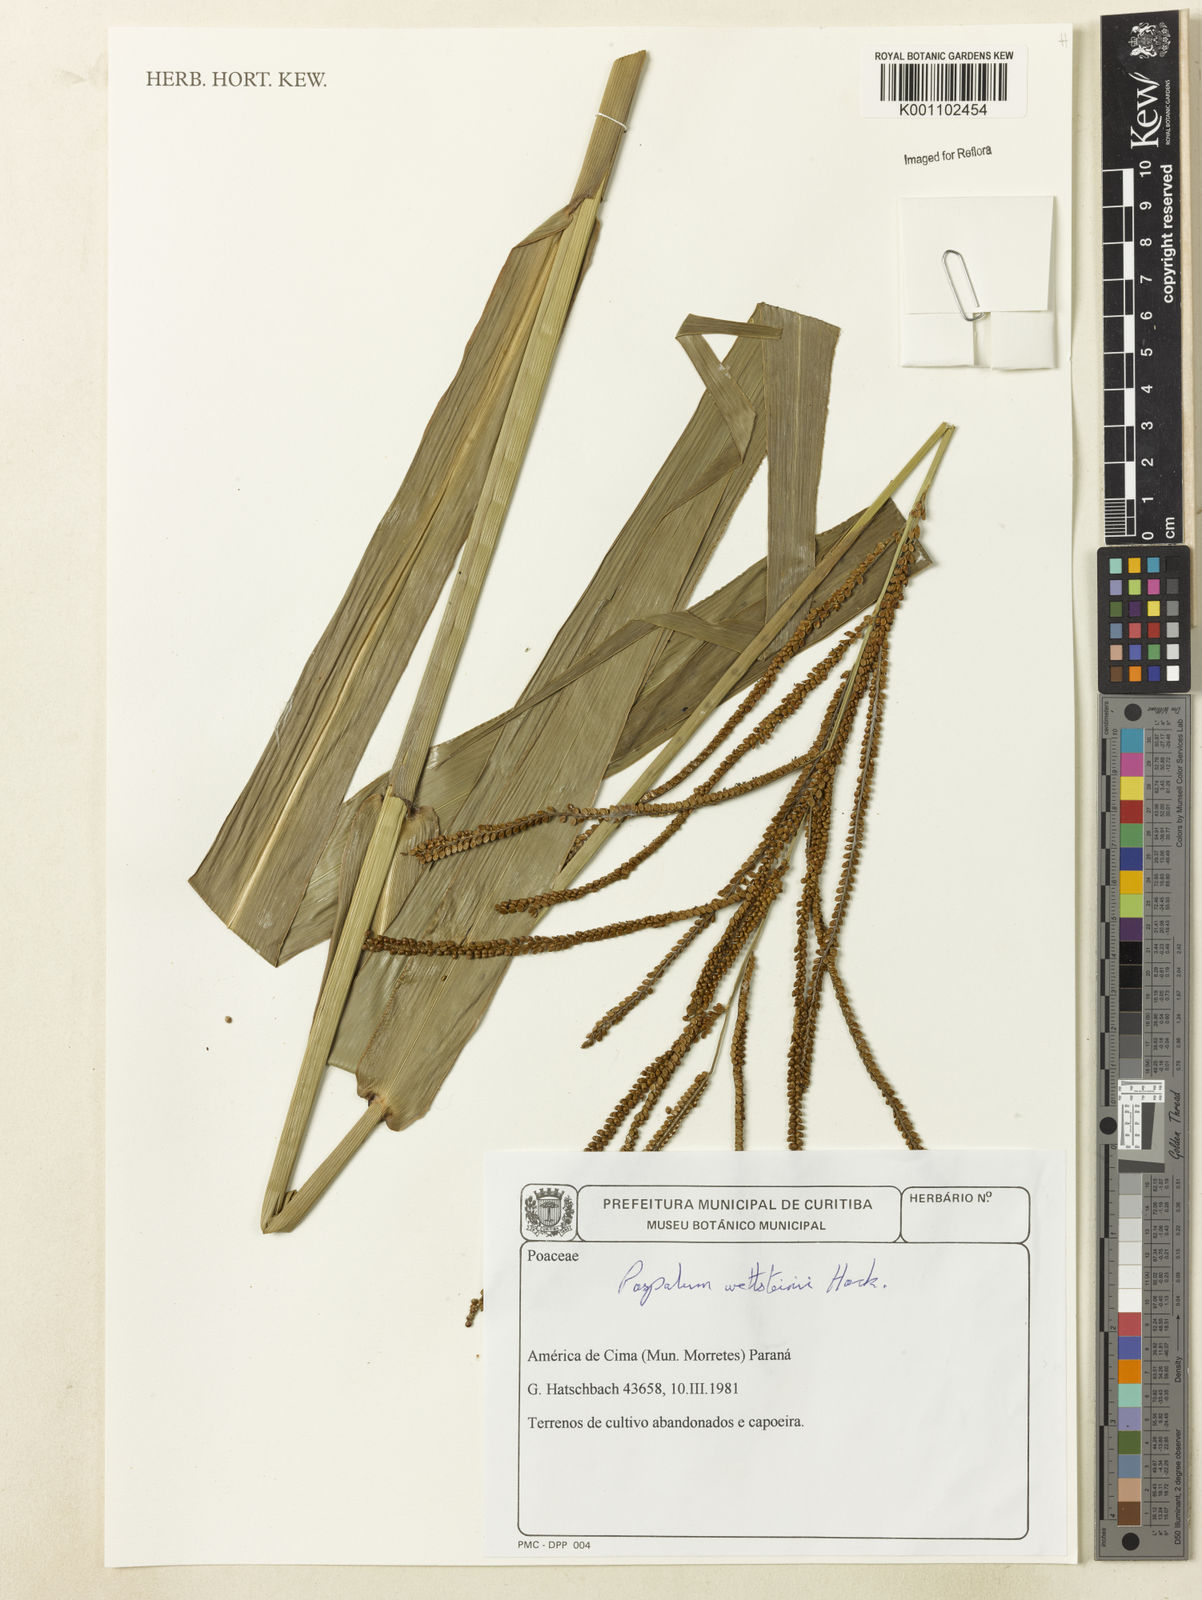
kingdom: Plantae
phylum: Tracheophyta
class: Liliopsida
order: Poales
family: Poaceae
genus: Paspalum
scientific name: Paspalum virgatum
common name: Talquezal
